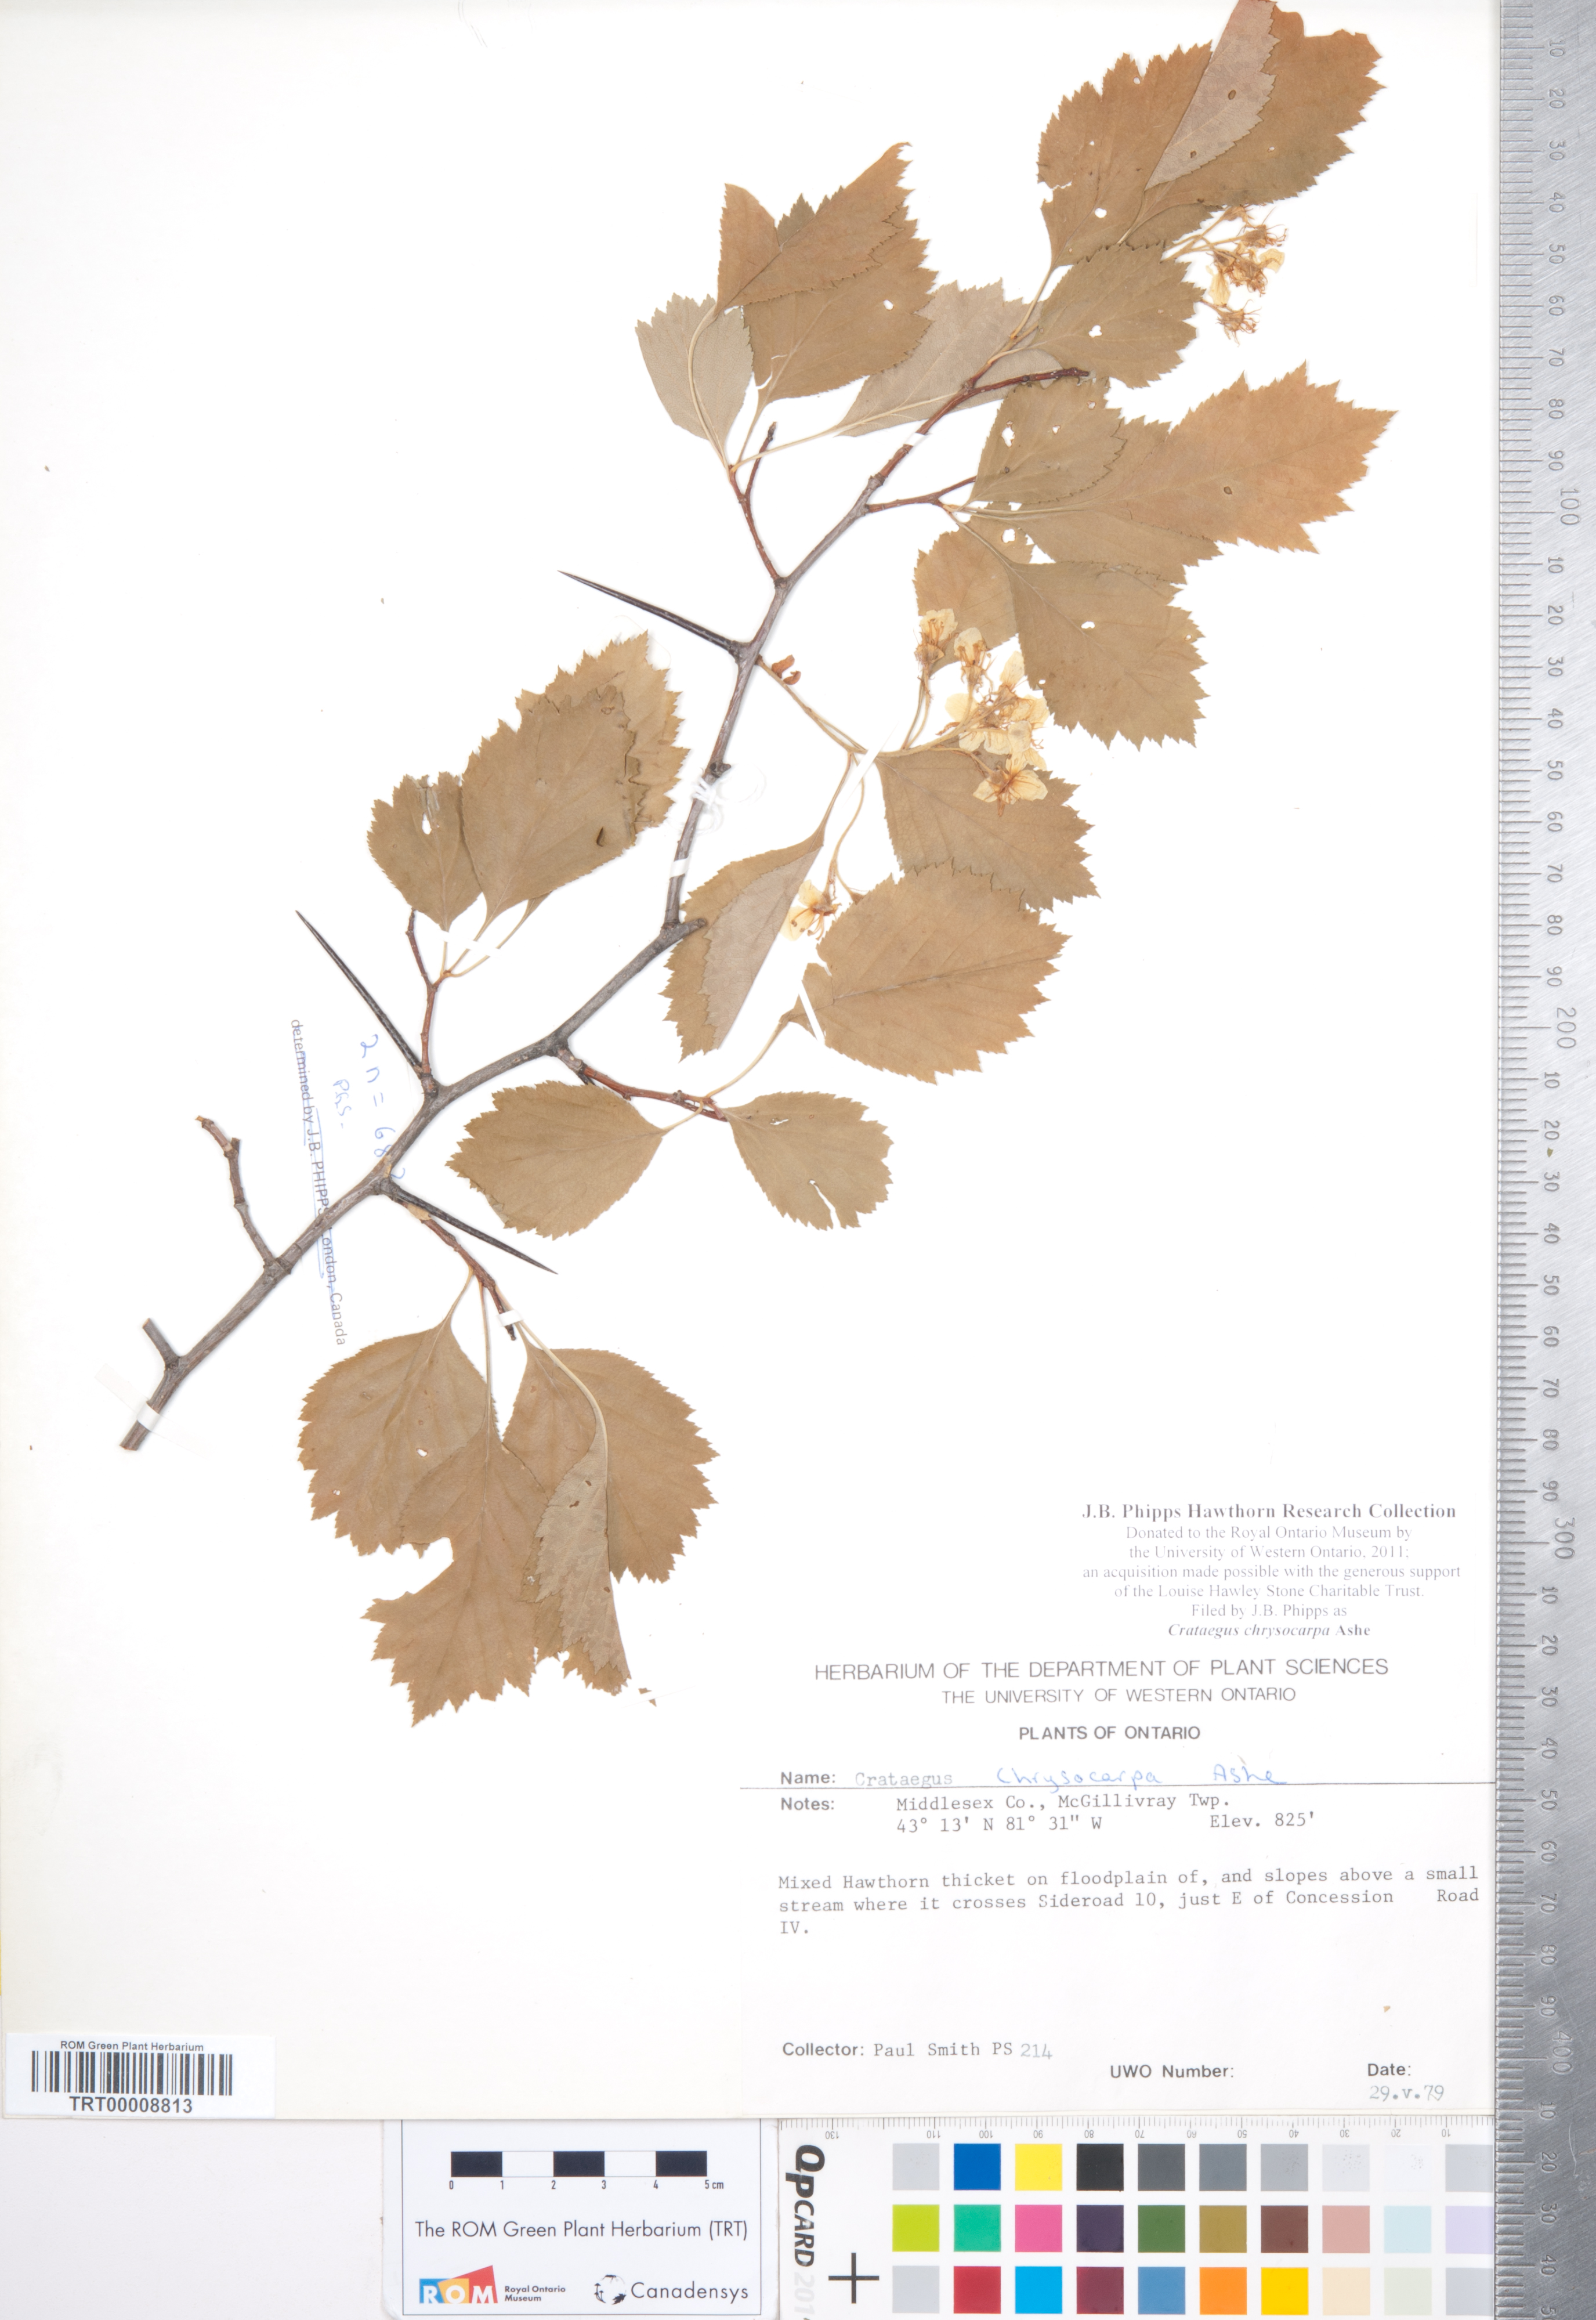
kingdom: Plantae
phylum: Tracheophyta
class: Magnoliopsida
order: Rosales
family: Rosaceae
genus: Crataegus
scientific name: Crataegus chrysocarpa
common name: Fire-berry hawthorn
